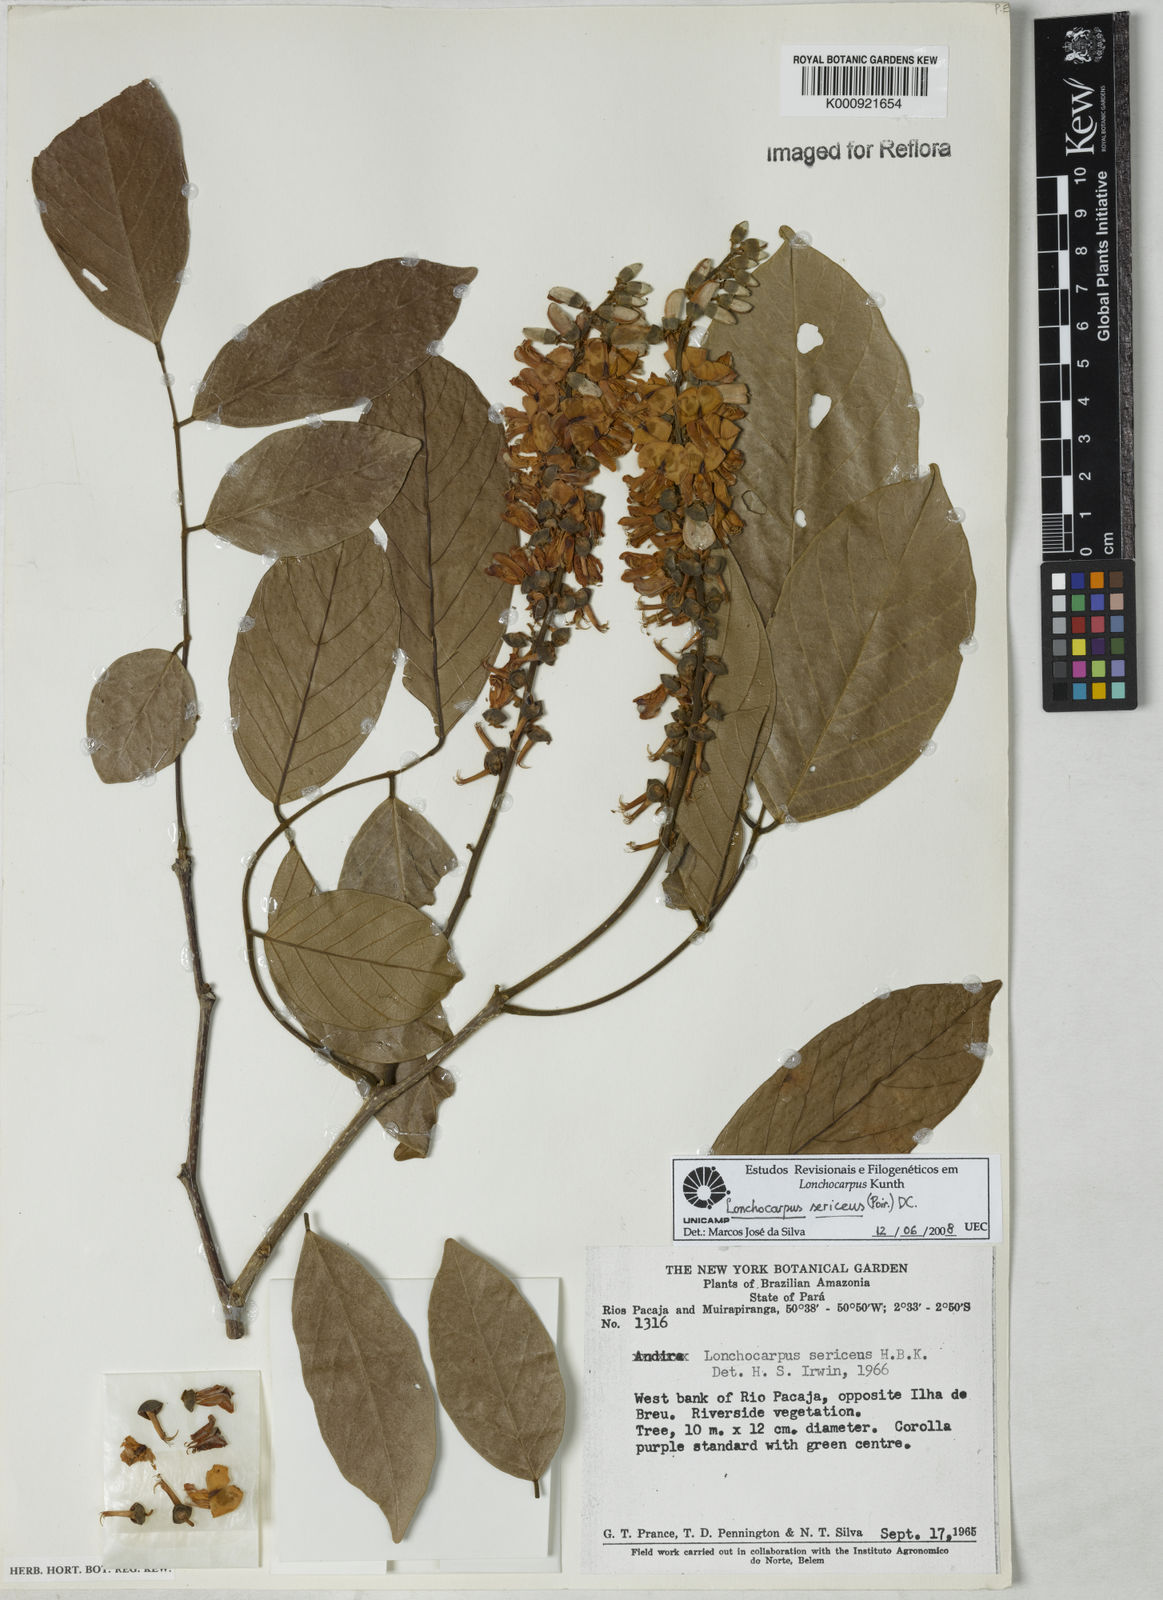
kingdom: Plantae
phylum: Tracheophyta
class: Magnoliopsida
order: Fabales
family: Fabaceae
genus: Lonchocarpus
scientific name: Lonchocarpus
